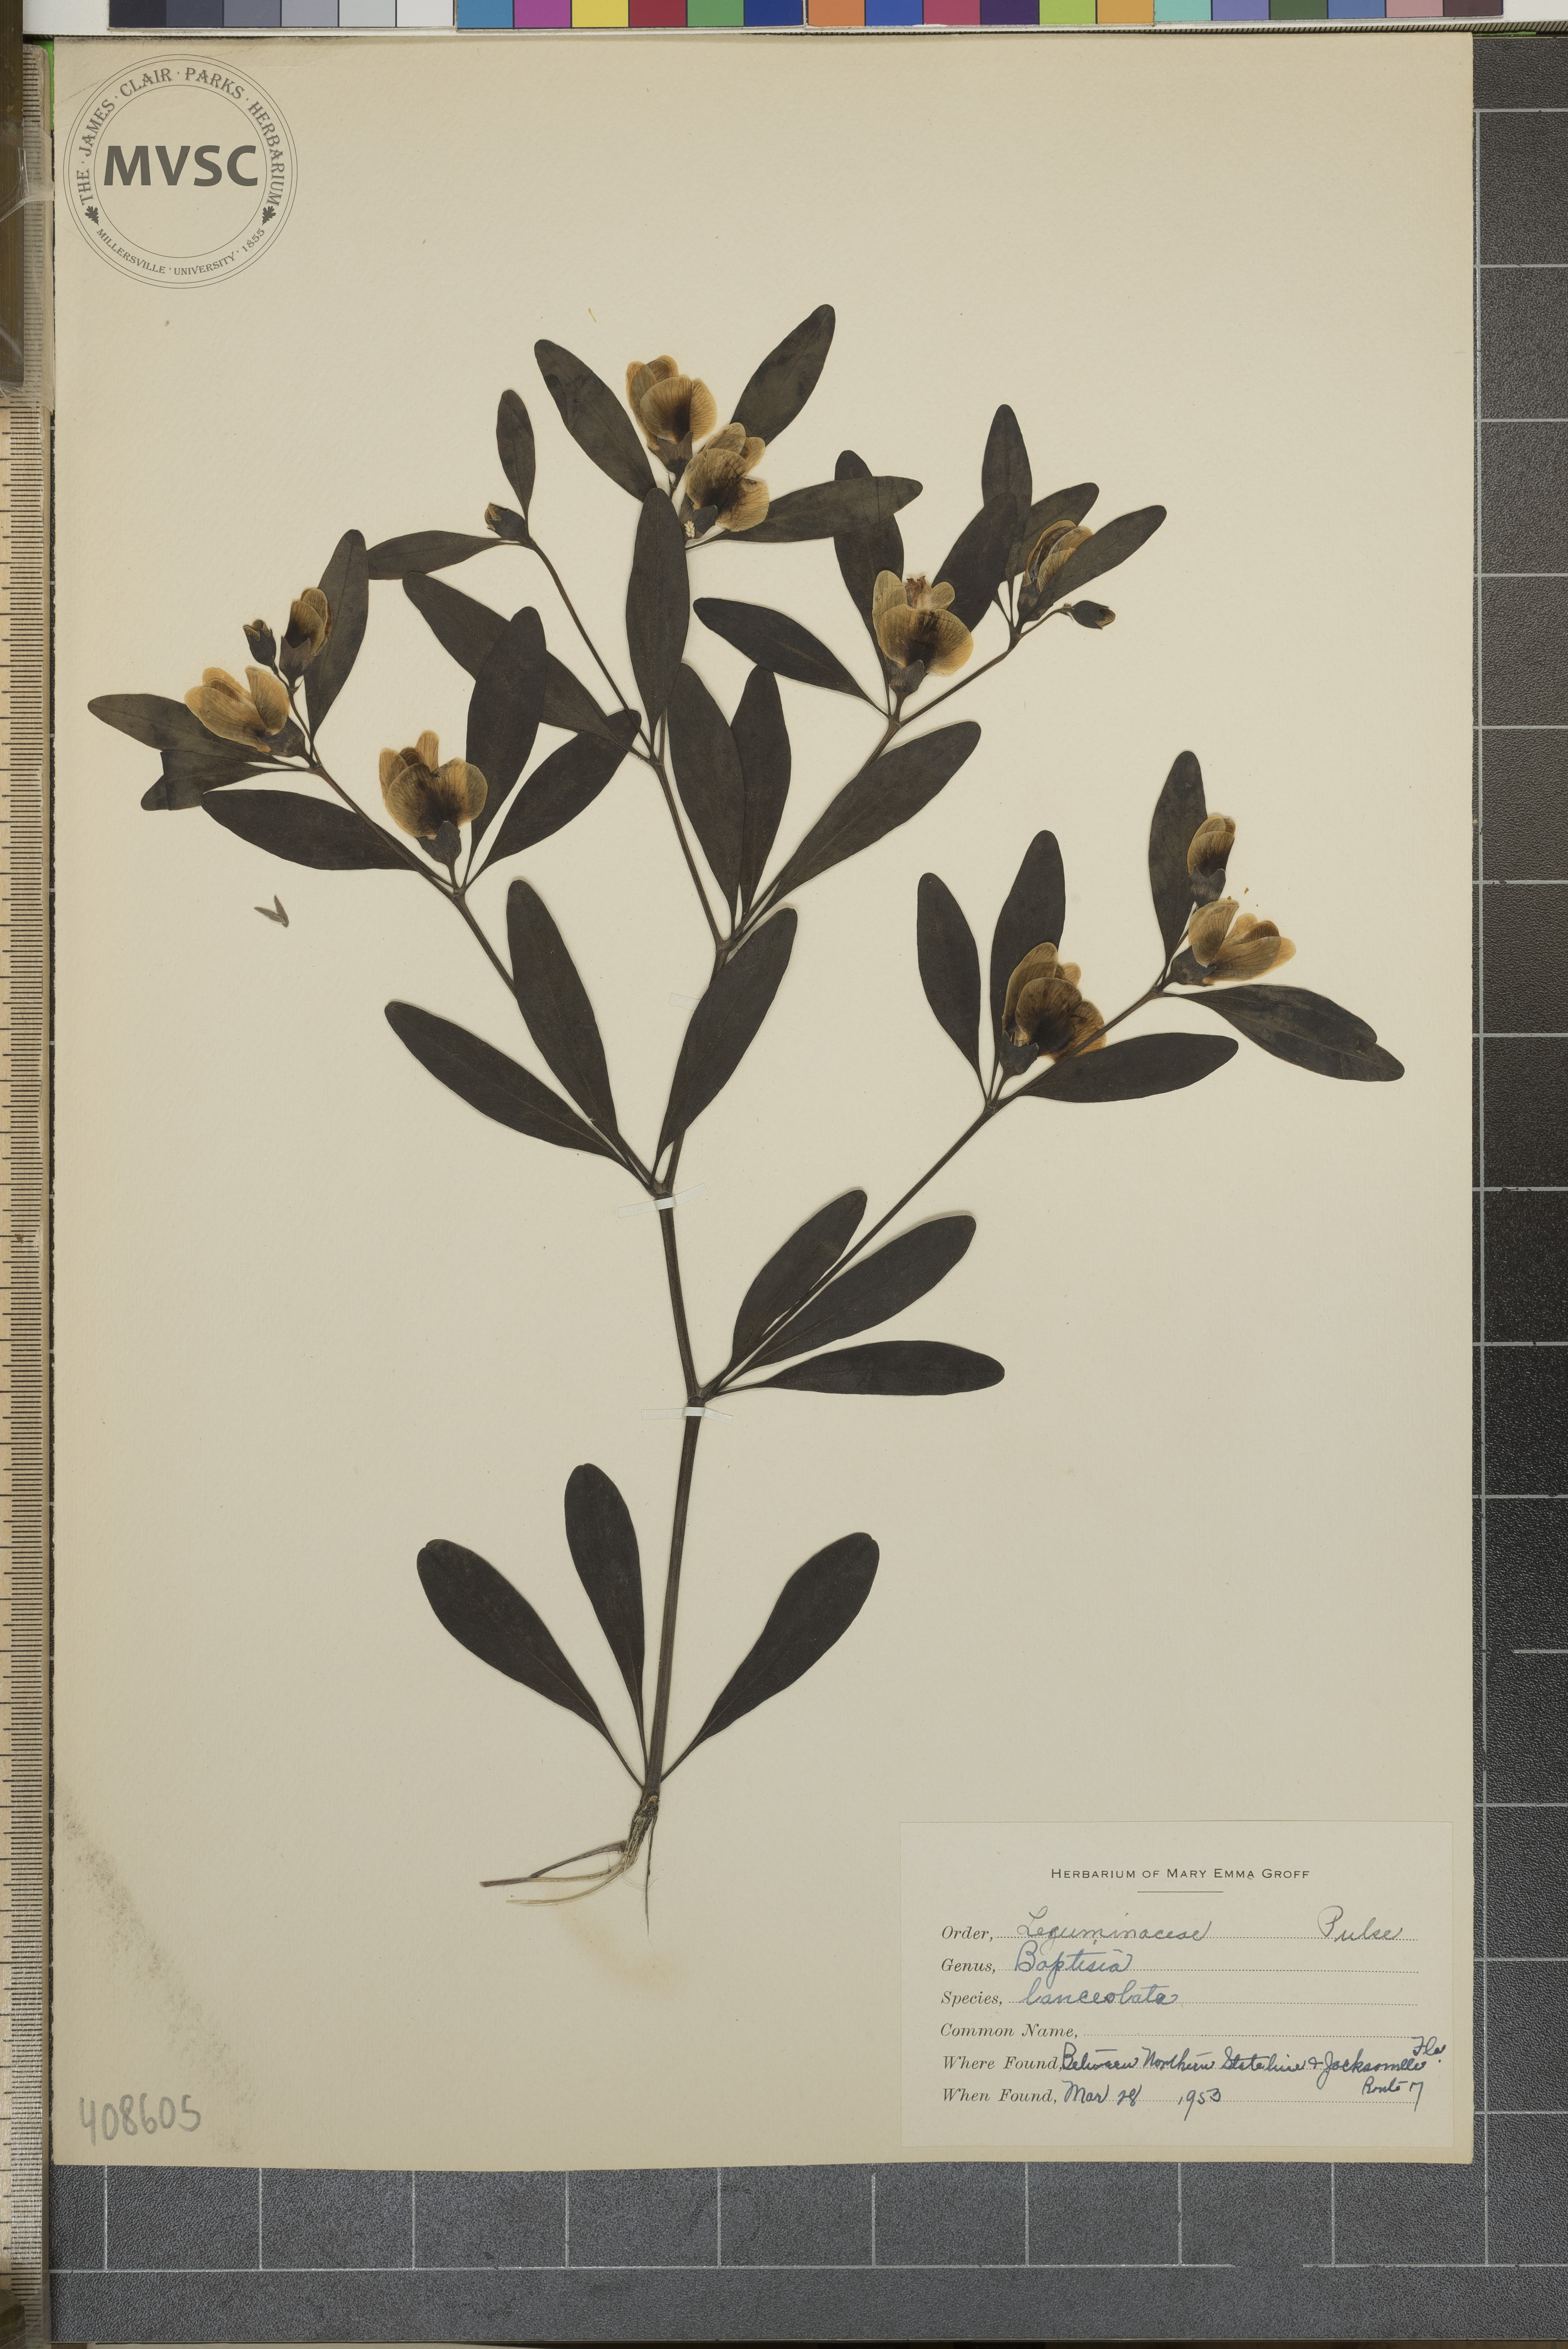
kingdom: Plantae
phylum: Tracheophyta
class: Magnoliopsida
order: Fabales
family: Fabaceae
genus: Baptisia
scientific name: Baptisia lanceolata
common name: Gopherweed
